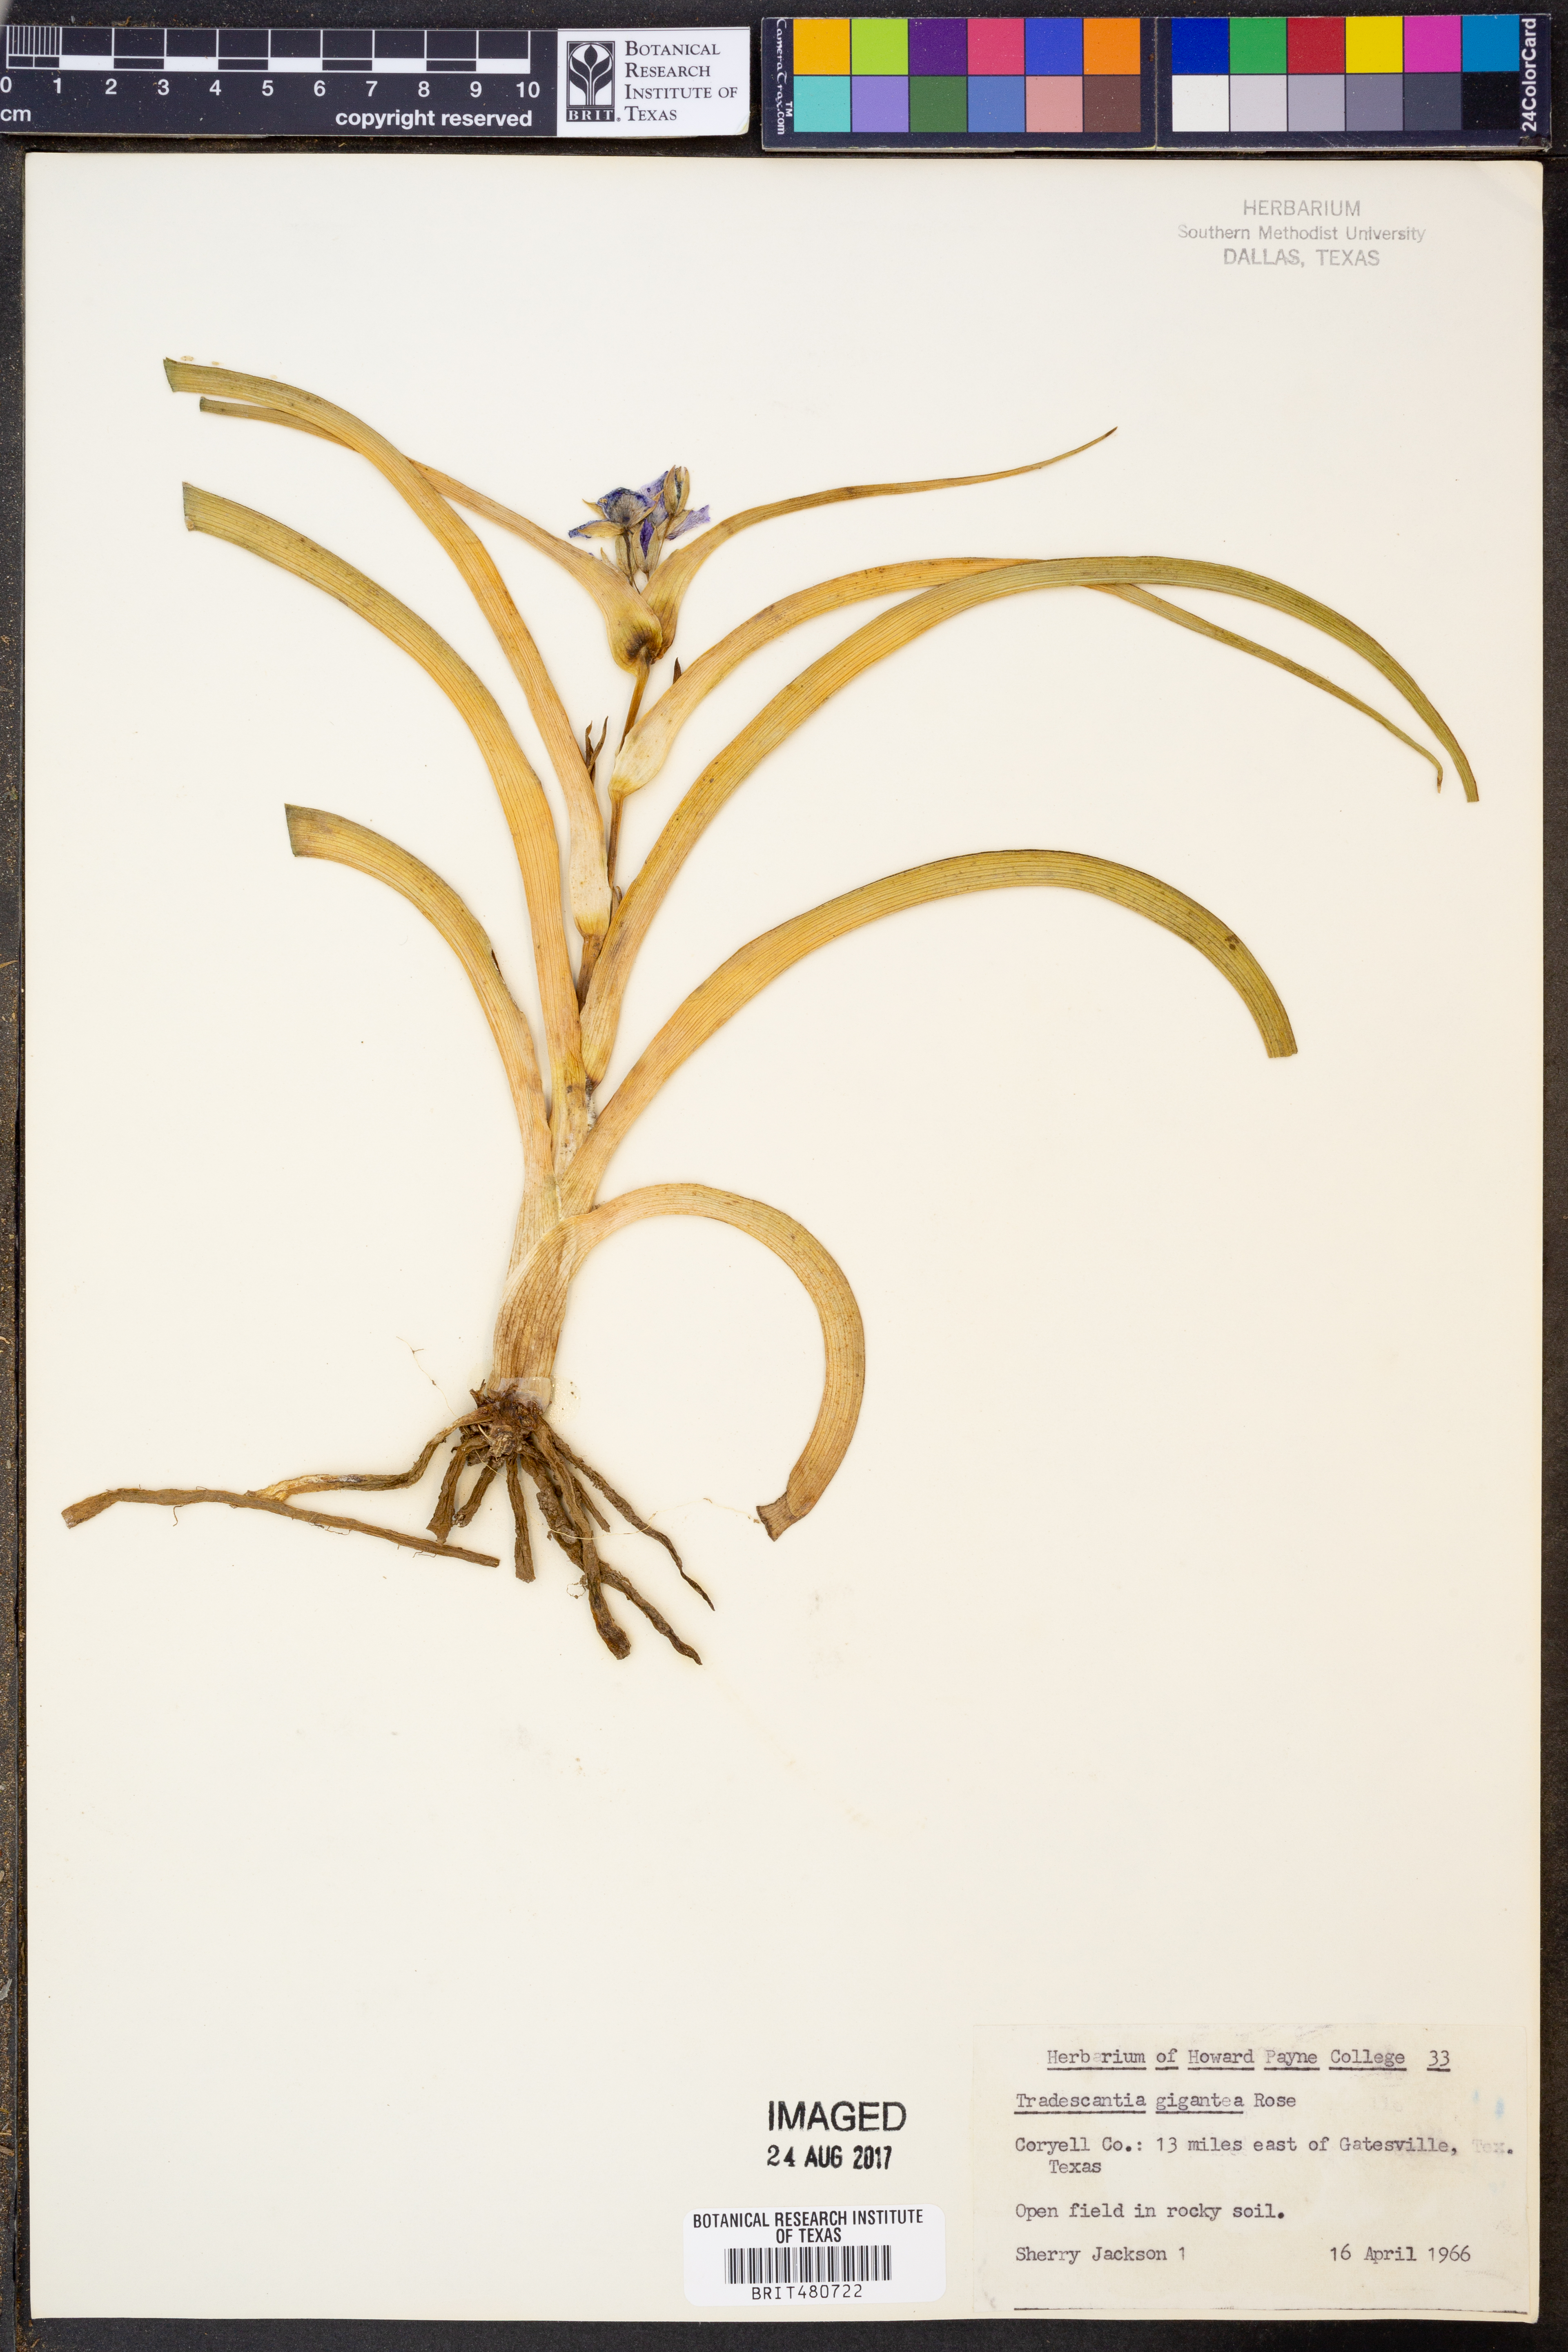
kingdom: Plantae
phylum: Tracheophyta
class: Liliopsida
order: Commelinales
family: Commelinaceae
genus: Tradescantia
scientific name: Tradescantia gigantea
